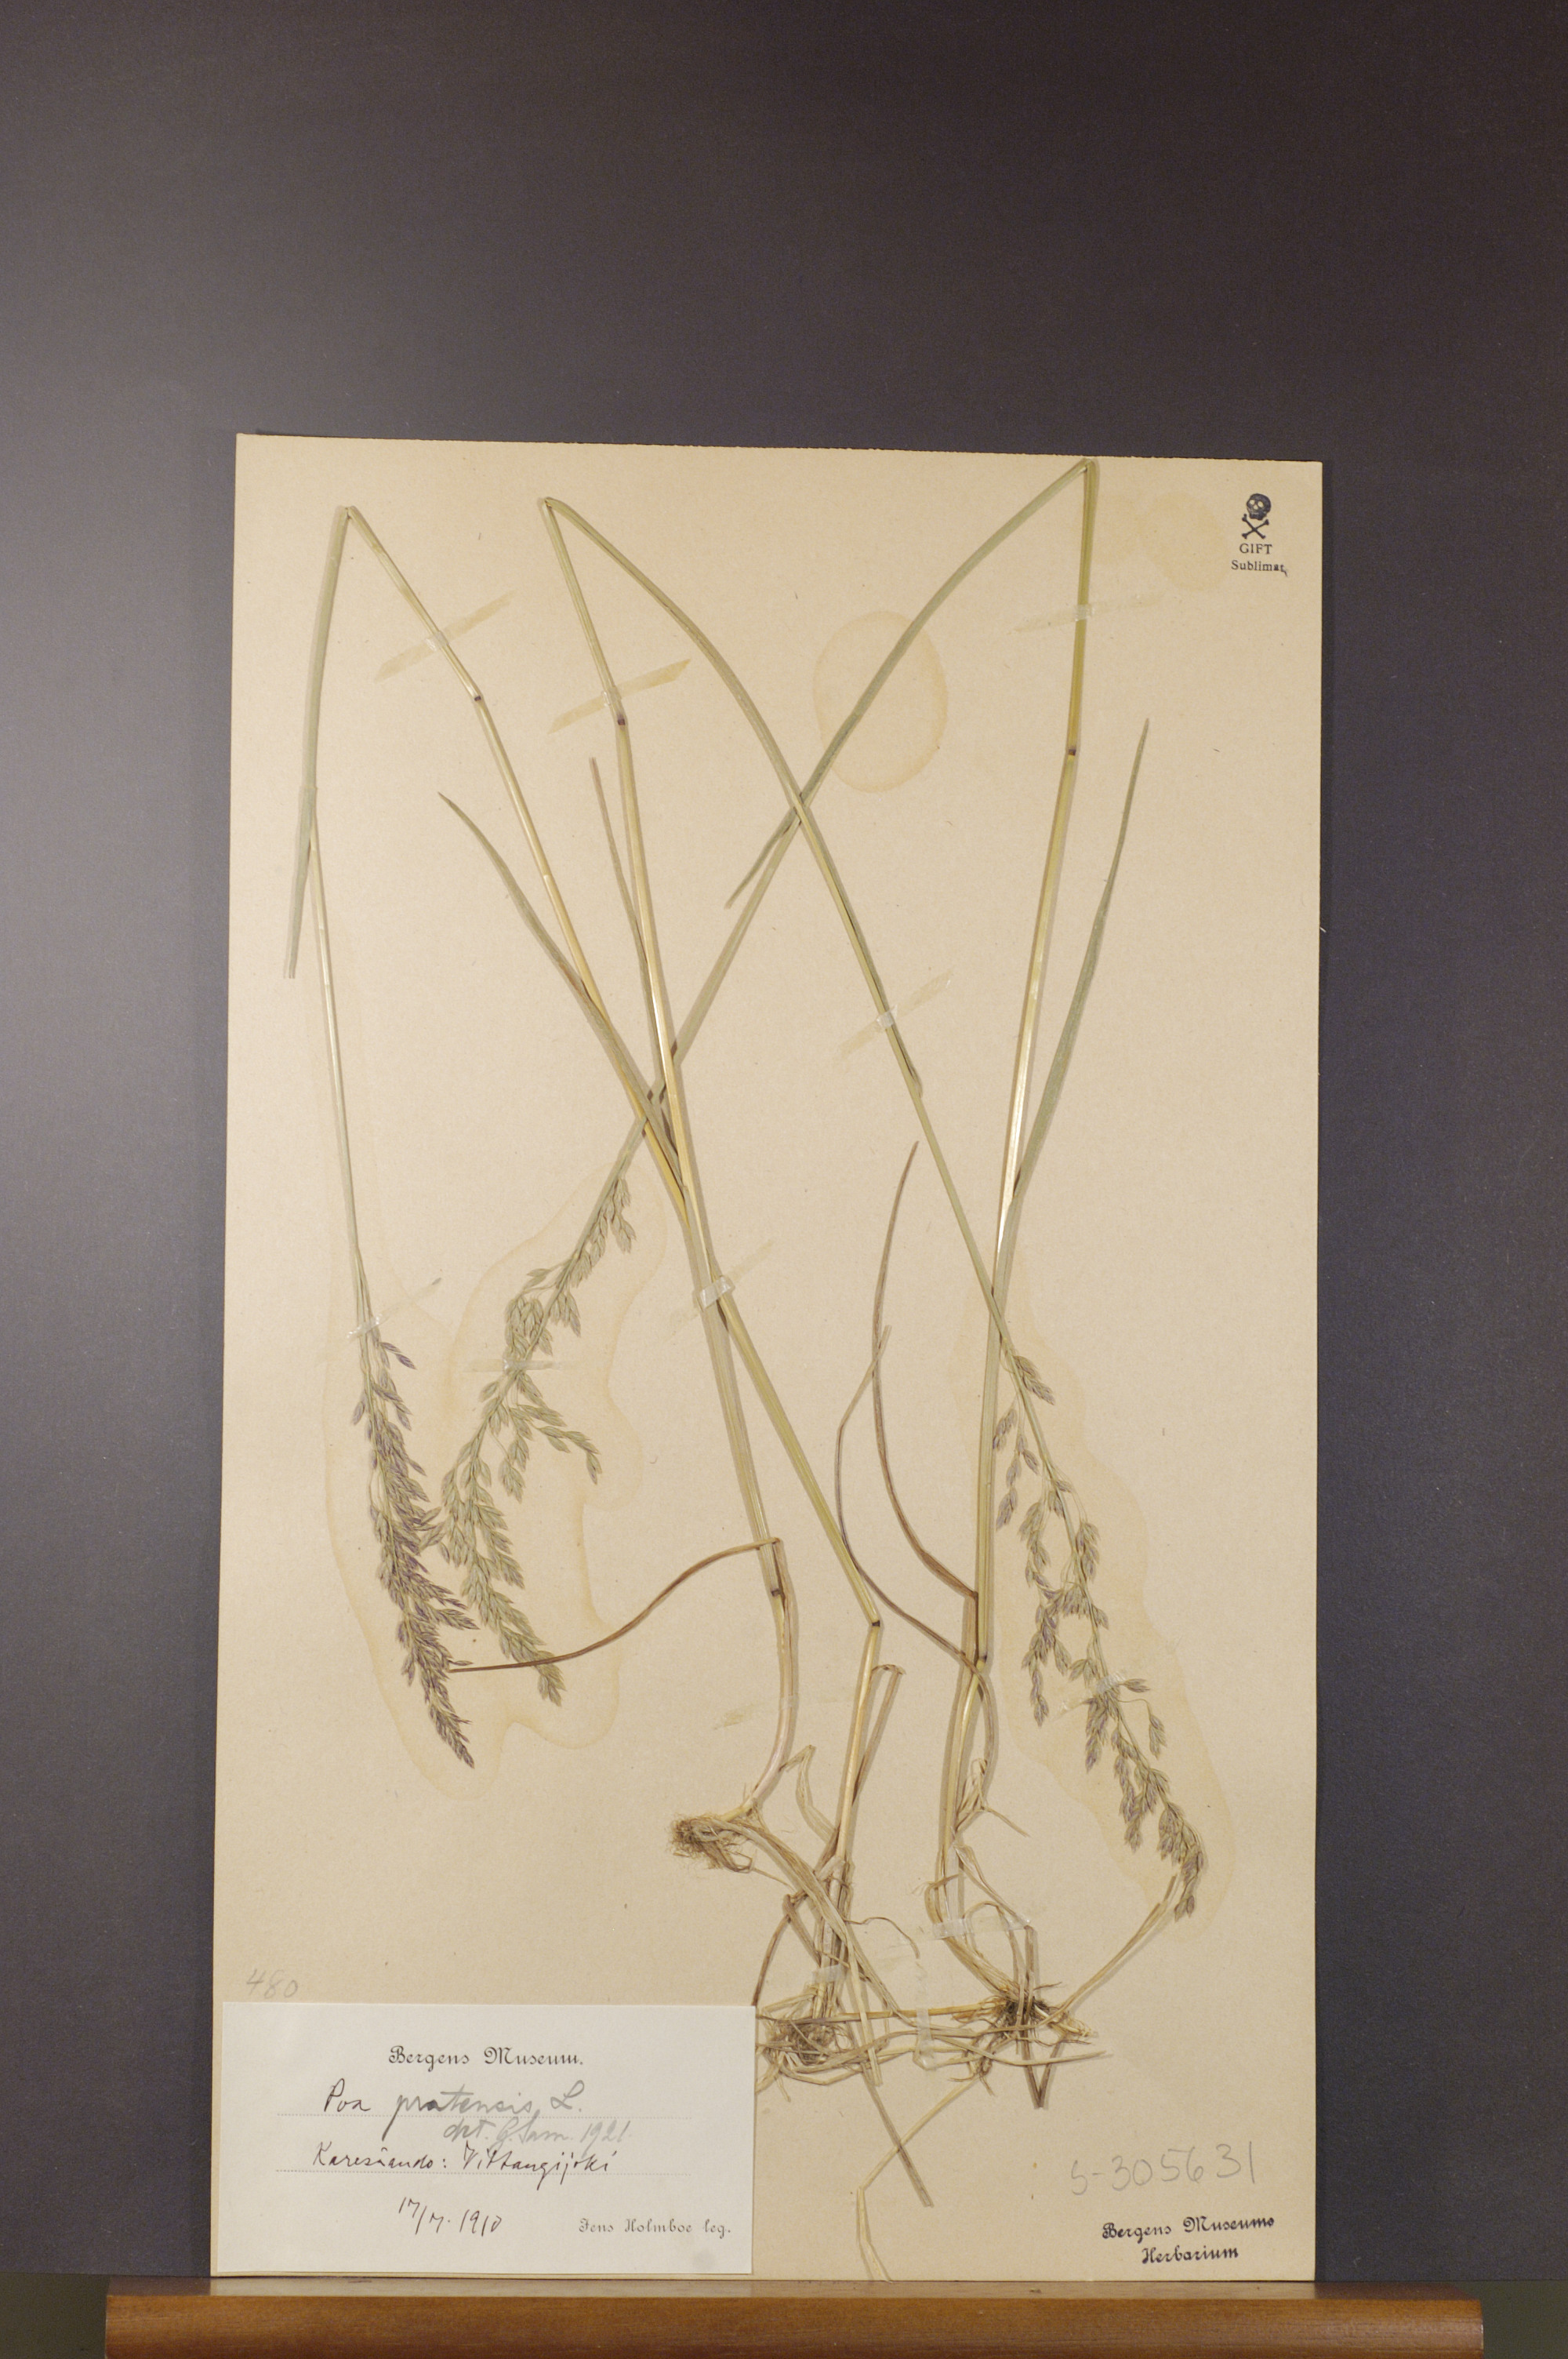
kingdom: Plantae
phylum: Tracheophyta
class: Liliopsida
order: Poales
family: Poaceae
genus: Poa
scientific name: Poa pratensis
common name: Kentucky bluegrass
